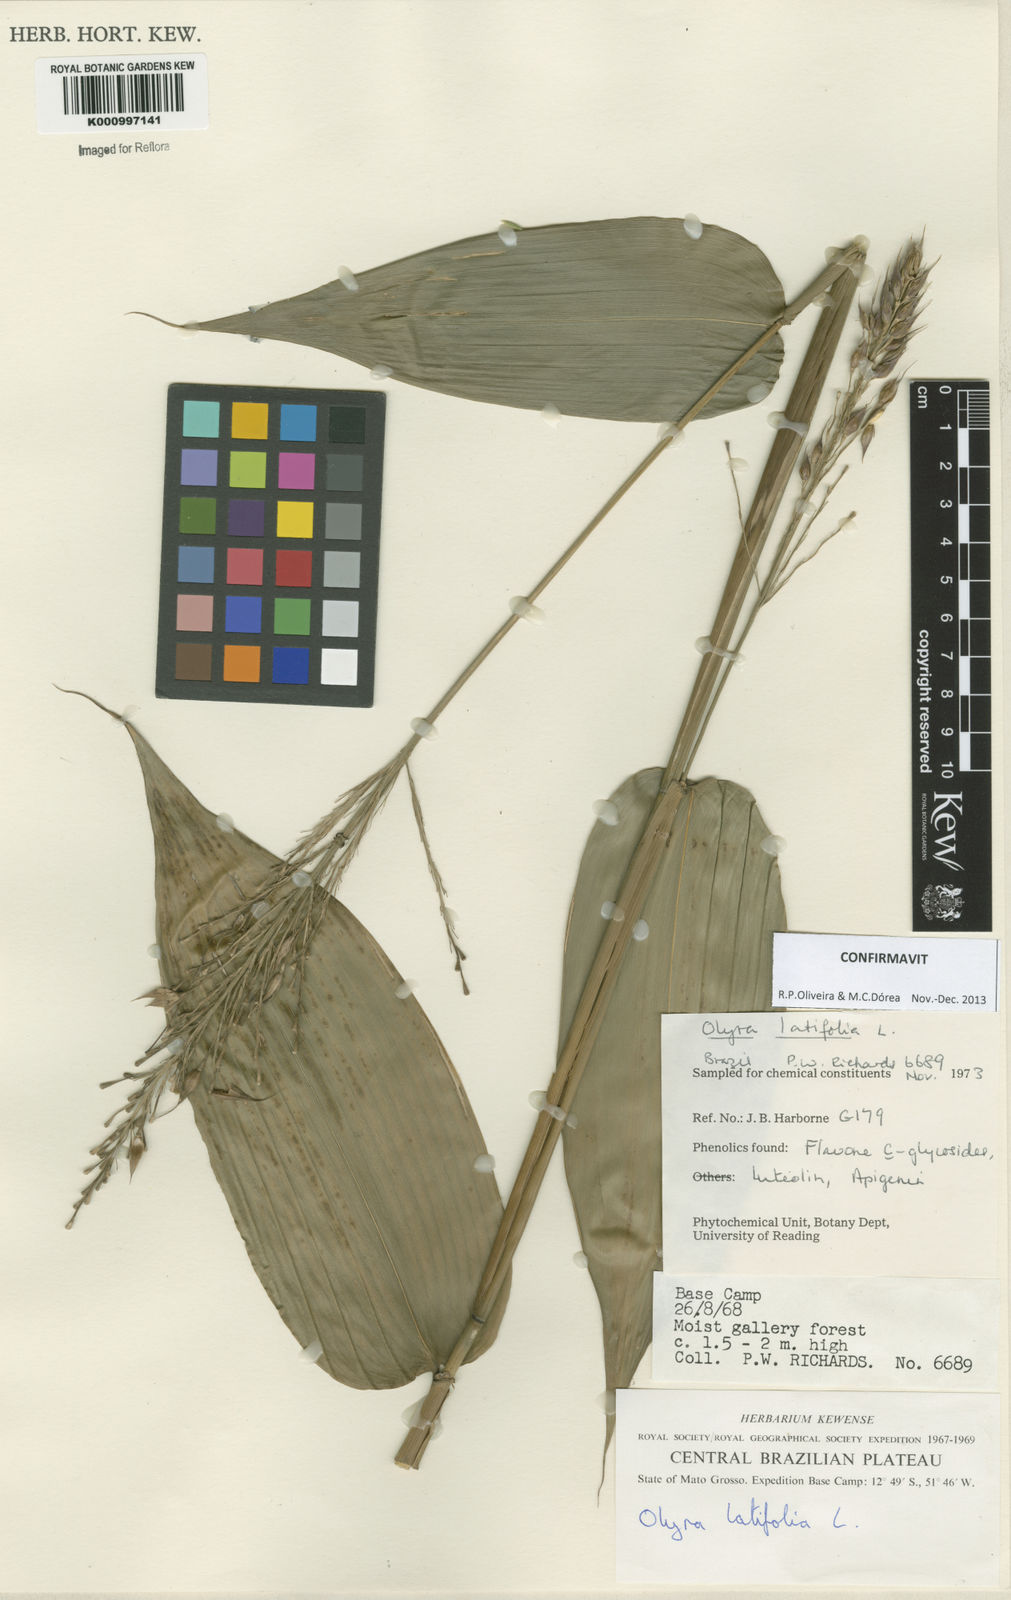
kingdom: Plantae
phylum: Tracheophyta
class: Liliopsida
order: Poales
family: Poaceae
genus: Olyra
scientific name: Olyra latifolia
